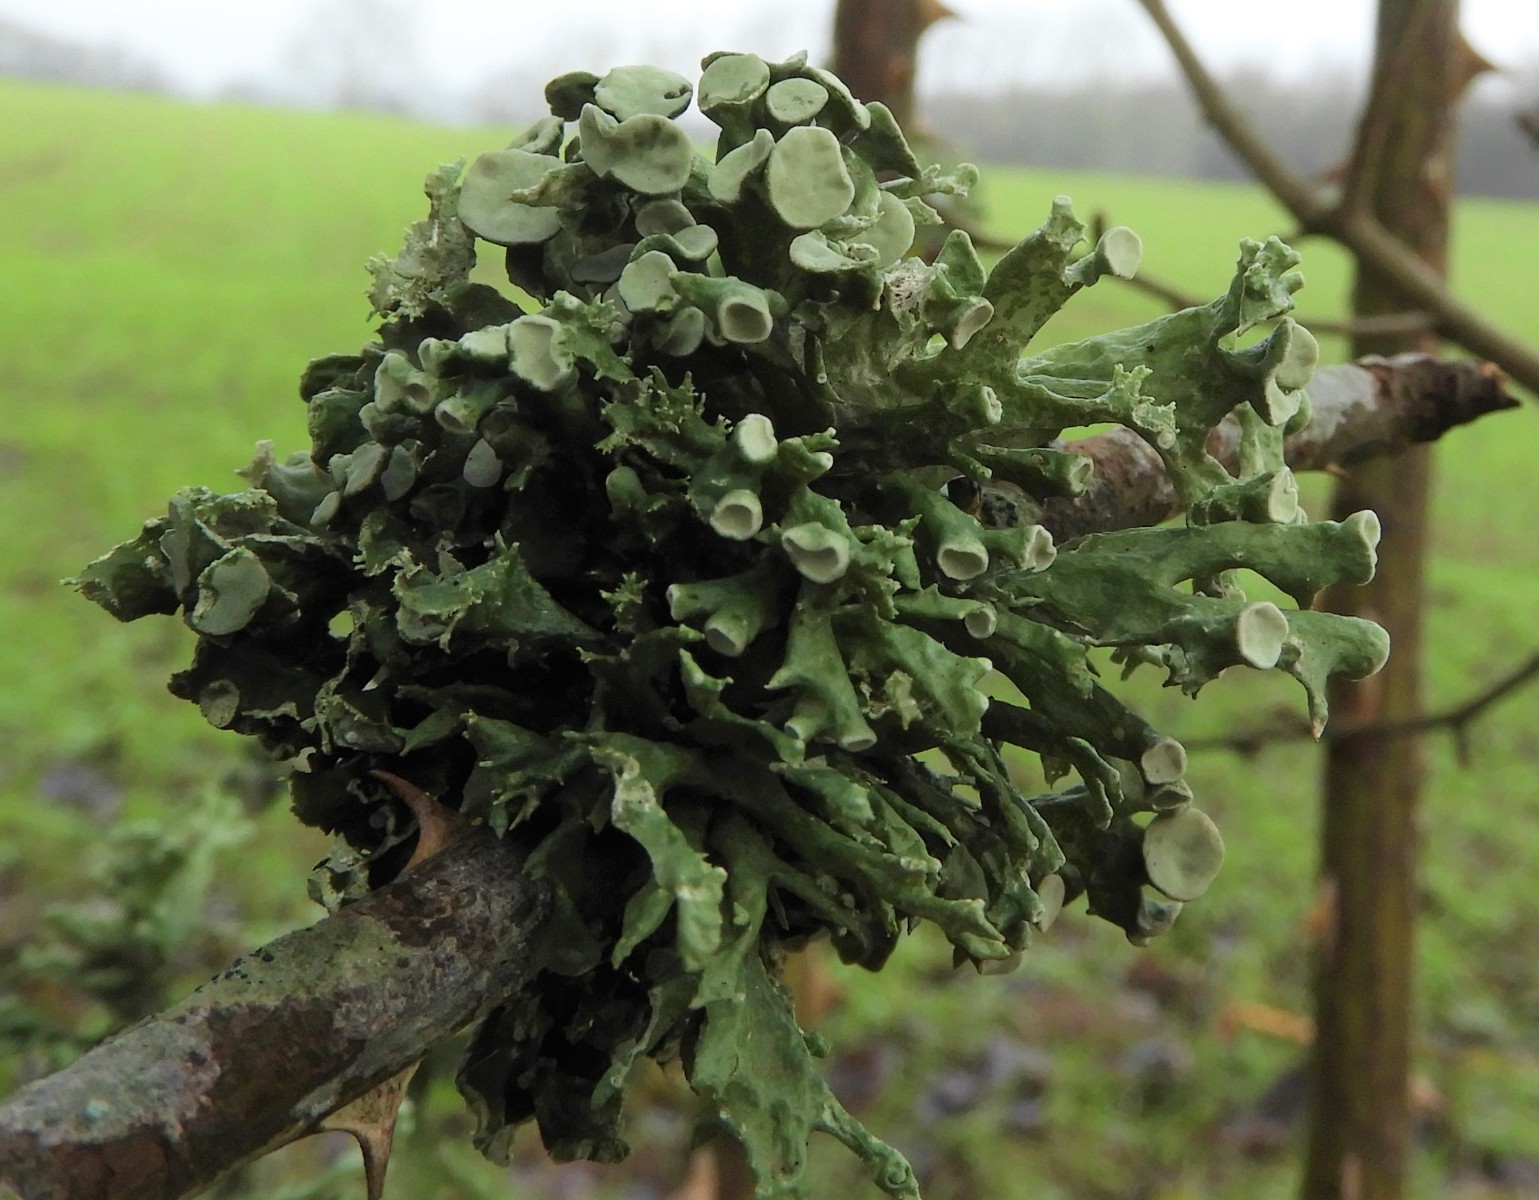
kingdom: Fungi
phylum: Ascomycota
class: Lecanoromycetes
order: Lecanorales
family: Ramalinaceae
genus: Ramalina
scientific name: Ramalina fastigiata
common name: tue-grenlav
